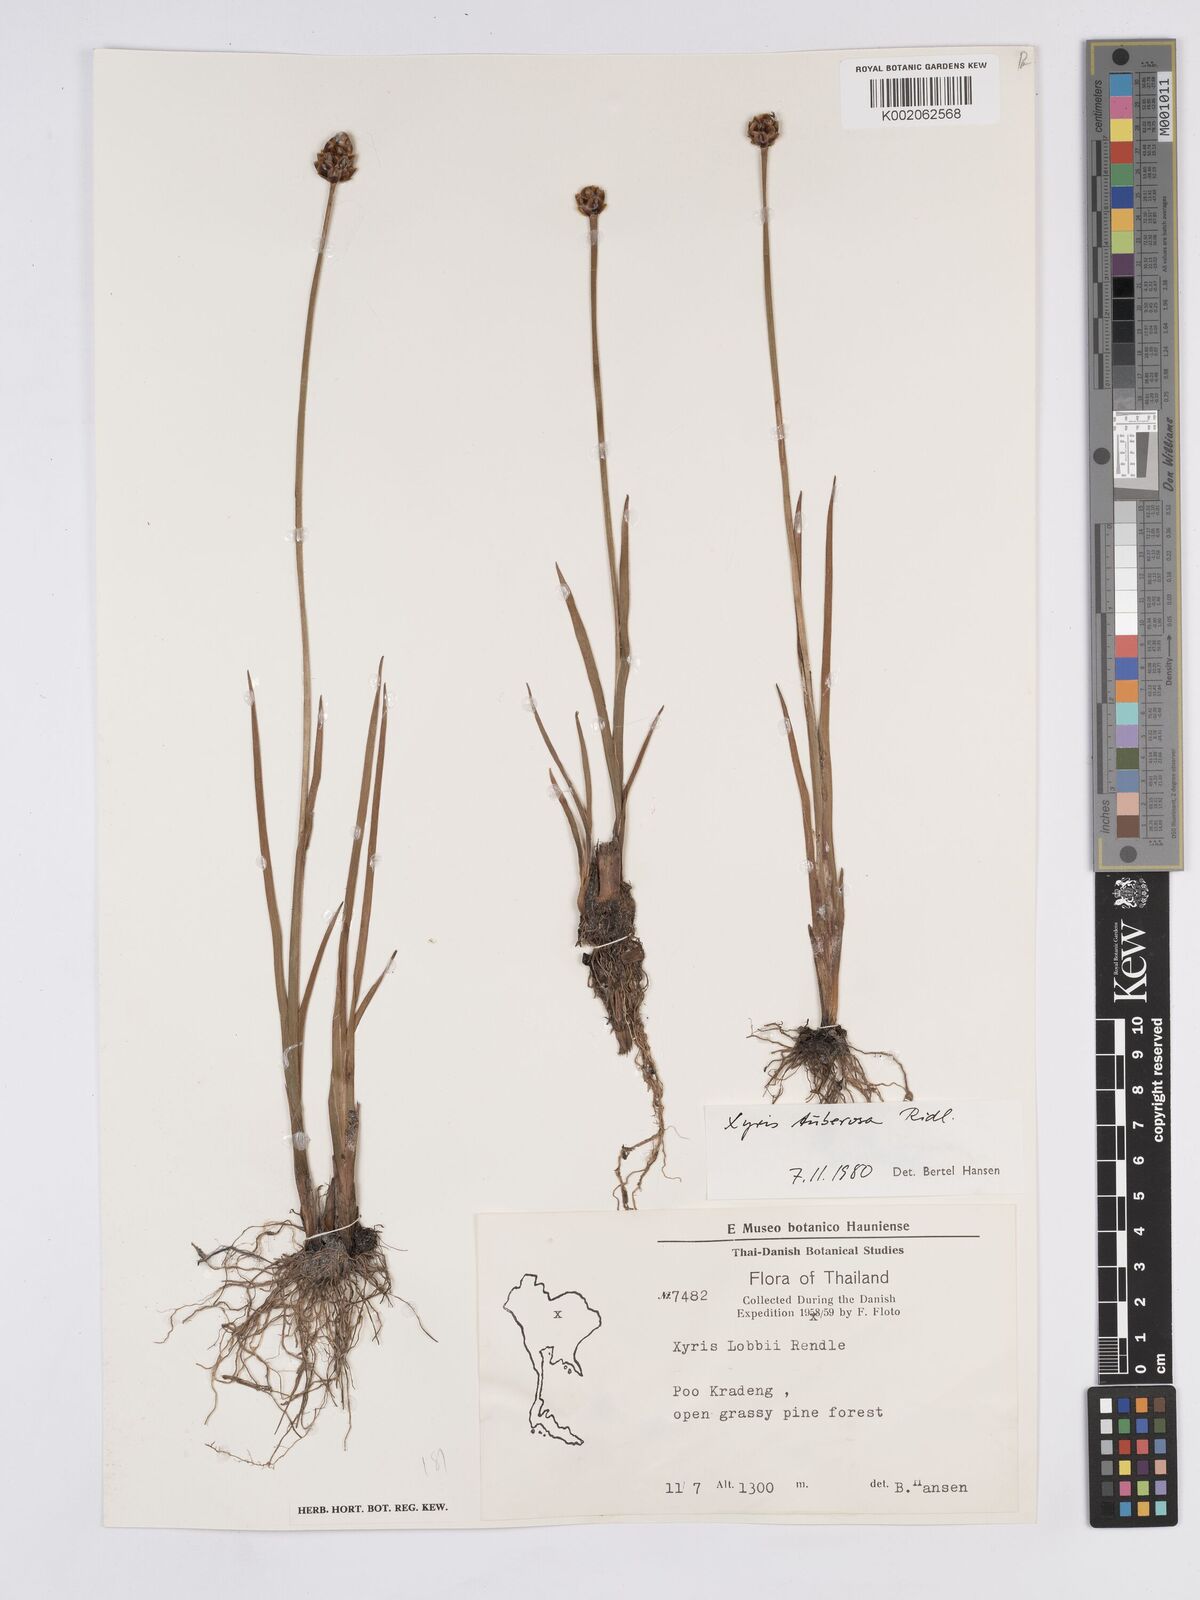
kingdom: Plantae
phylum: Tracheophyta
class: Liliopsida
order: Poales
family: Xyridaceae
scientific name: Xyridaceae
